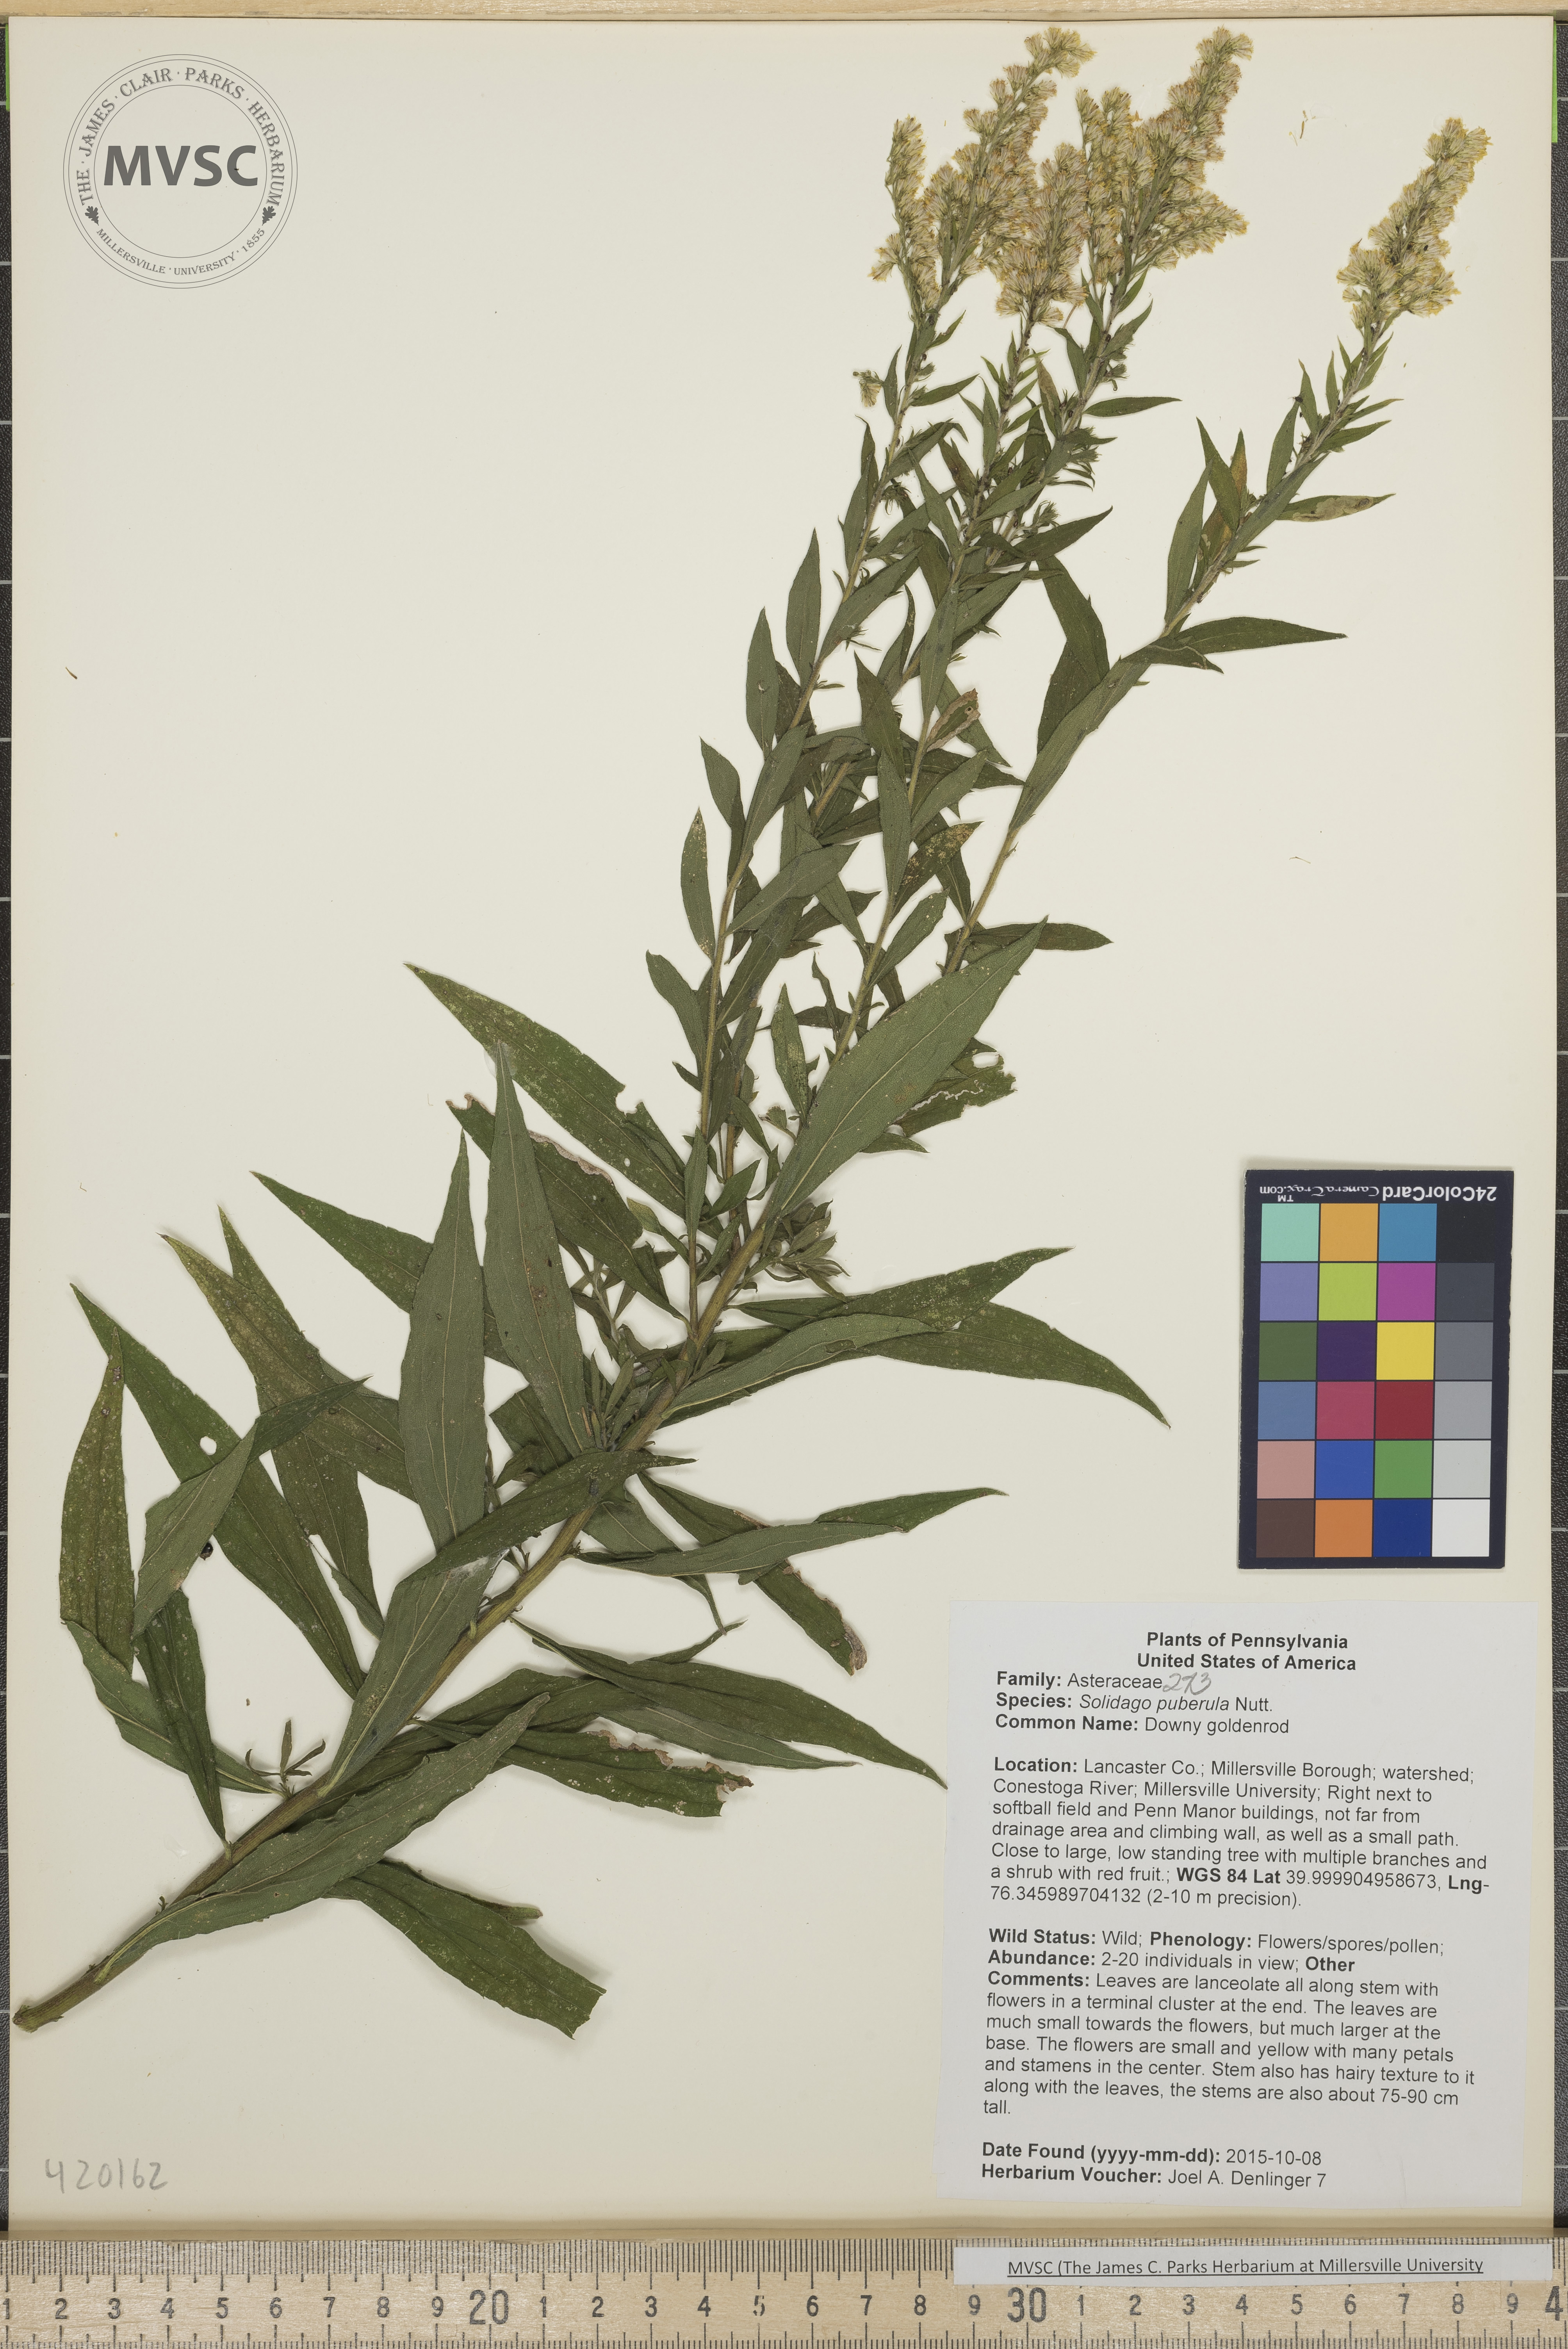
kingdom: Plantae
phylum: Tracheophyta
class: Magnoliopsida
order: Asterales
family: Asteraceae
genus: Solidago
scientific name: Solidago puberula
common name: Downy goldenrod
